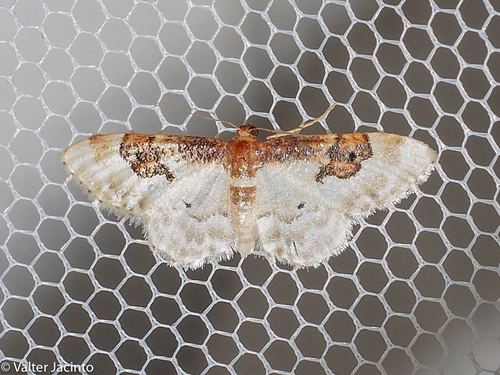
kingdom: Animalia
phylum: Arthropoda
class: Insecta
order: Lepidoptera
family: Geometridae
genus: Idaea
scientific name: Idaea rusticata
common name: Least carpet
